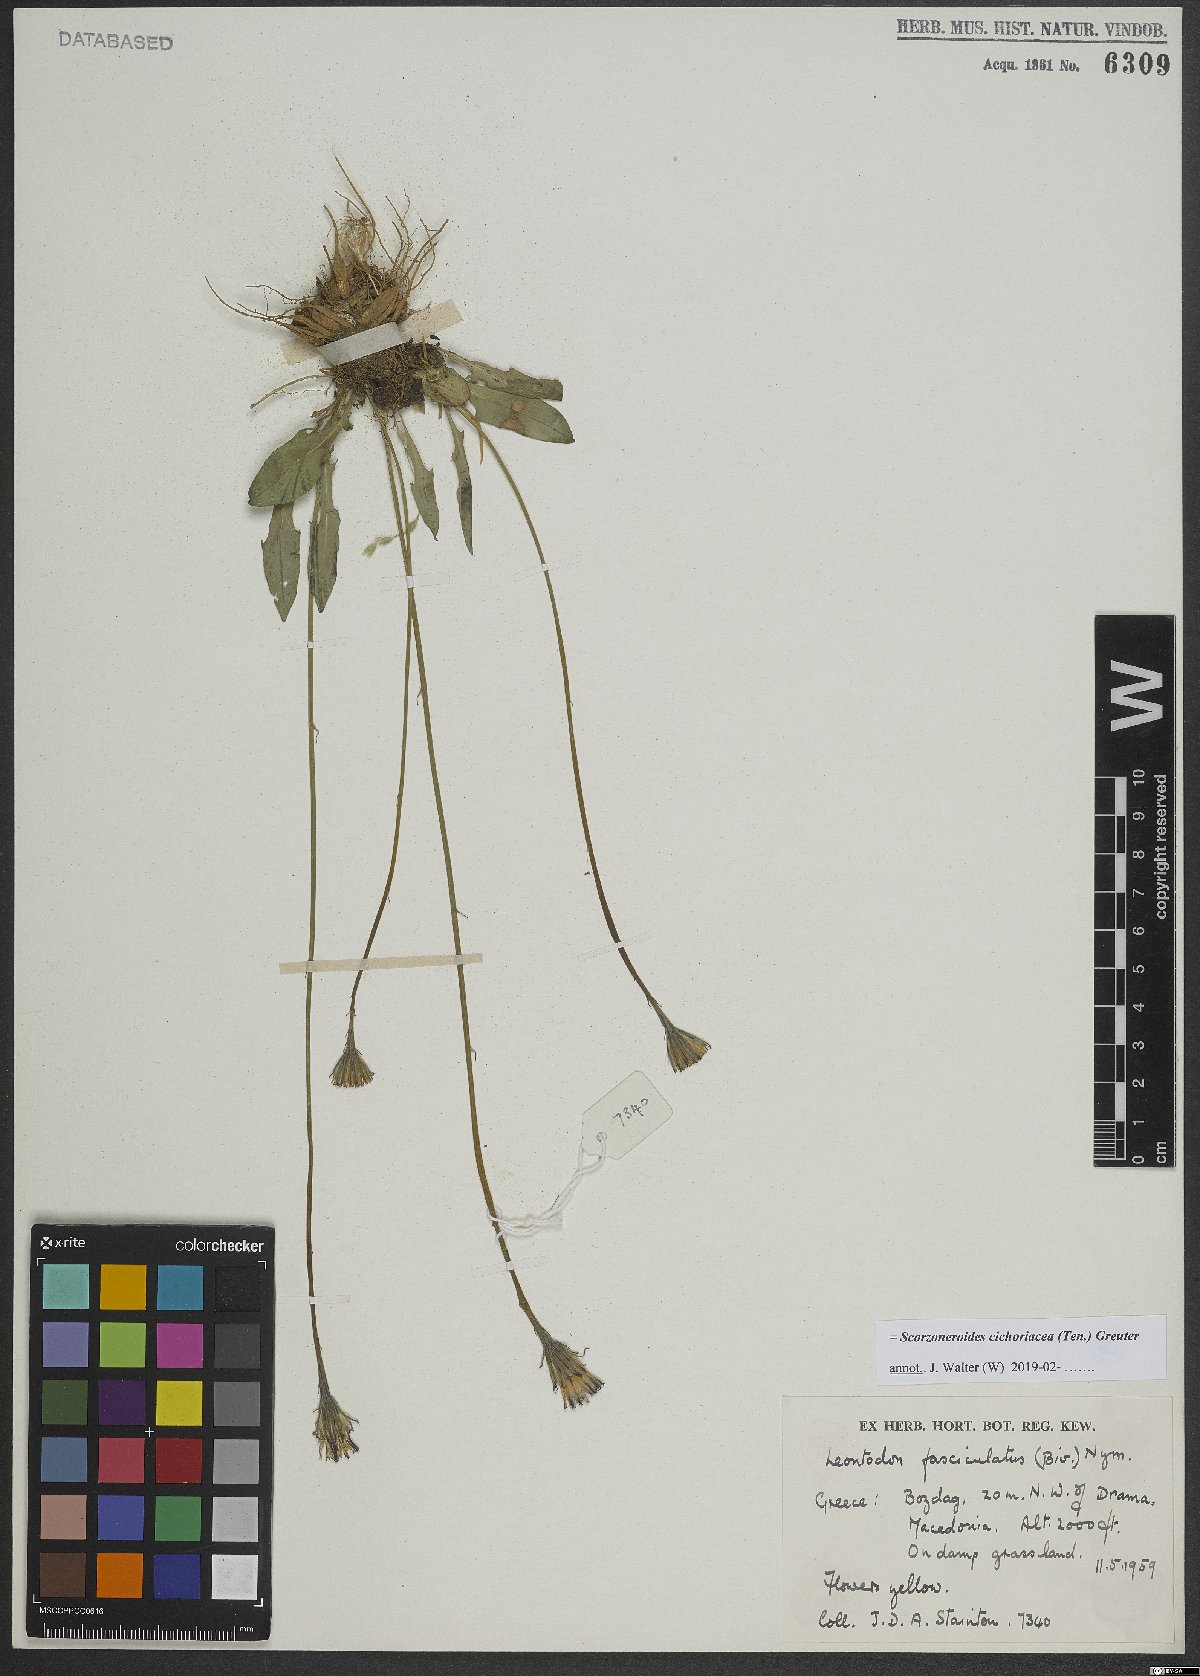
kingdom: Plantae
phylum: Tracheophyta
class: Magnoliopsida
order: Asterales
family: Asteraceae
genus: Scorzoneroides
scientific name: Scorzoneroides cichoriacea
